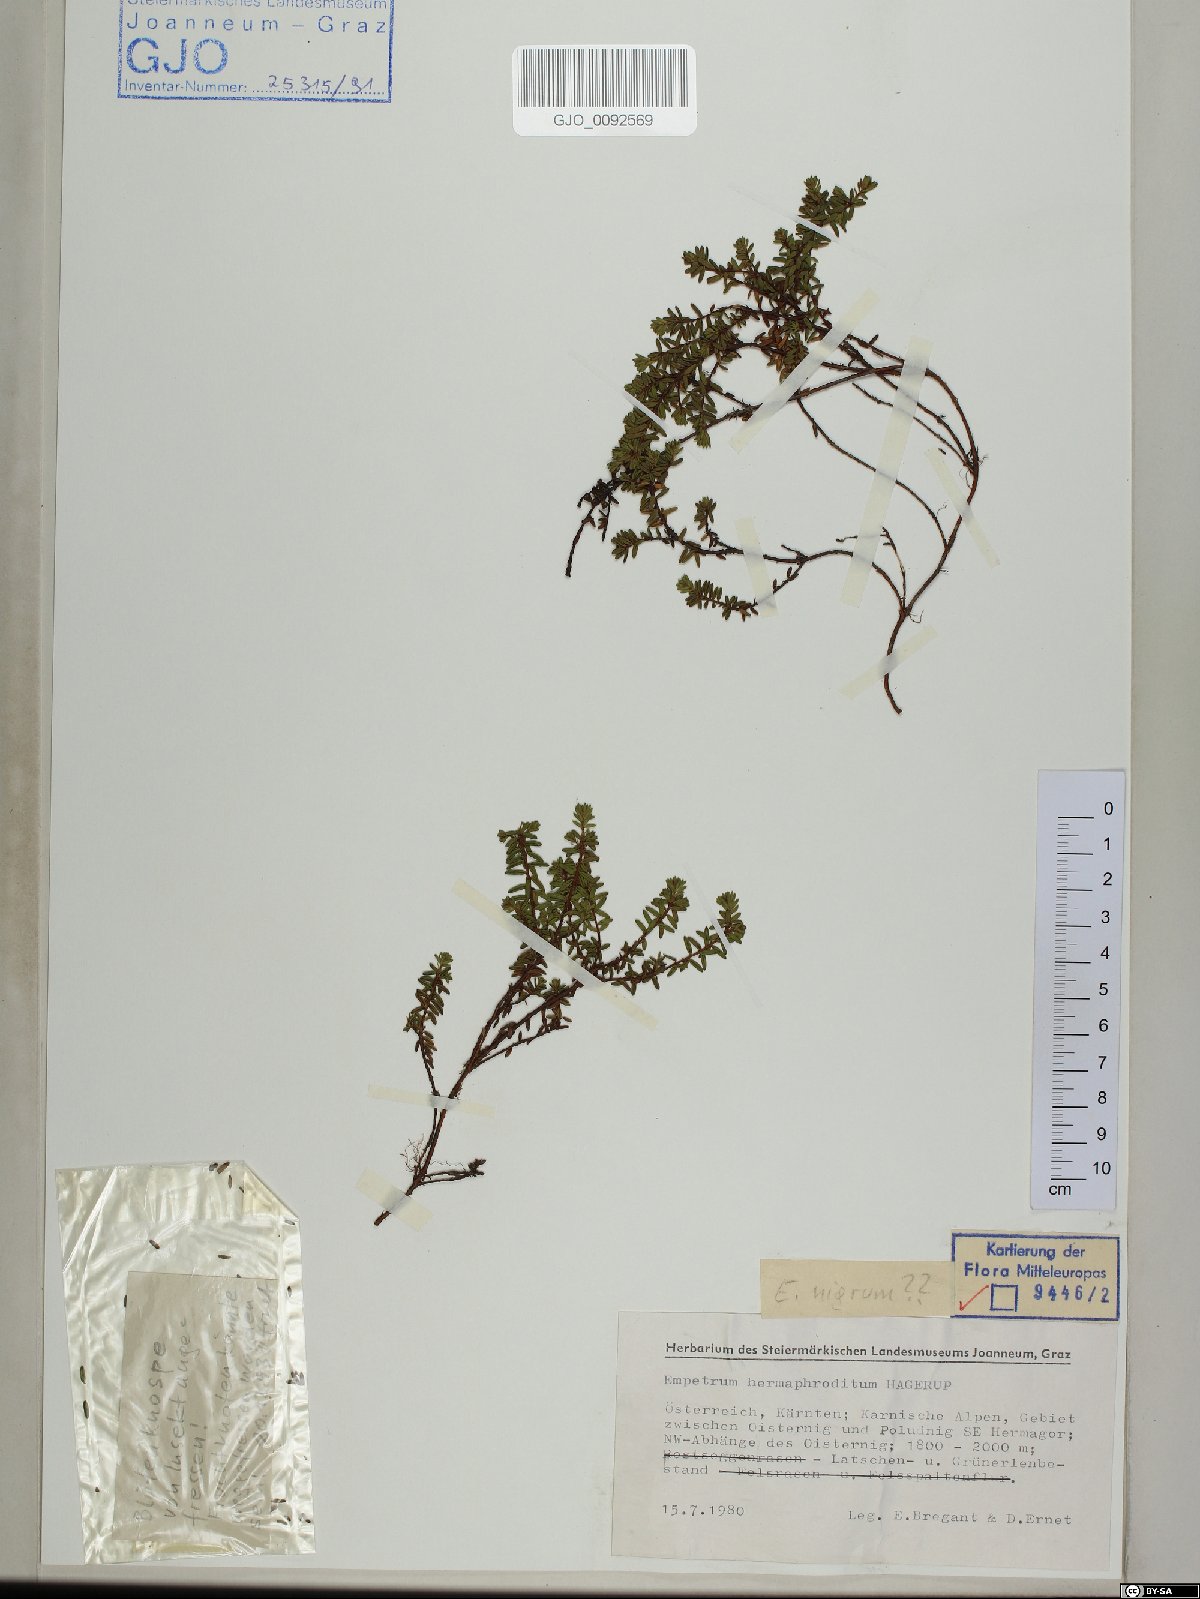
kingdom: Plantae
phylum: Tracheophyta
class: Magnoliopsida
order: Ericales
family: Ericaceae
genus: Empetrum
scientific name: Empetrum hermaphroditum
